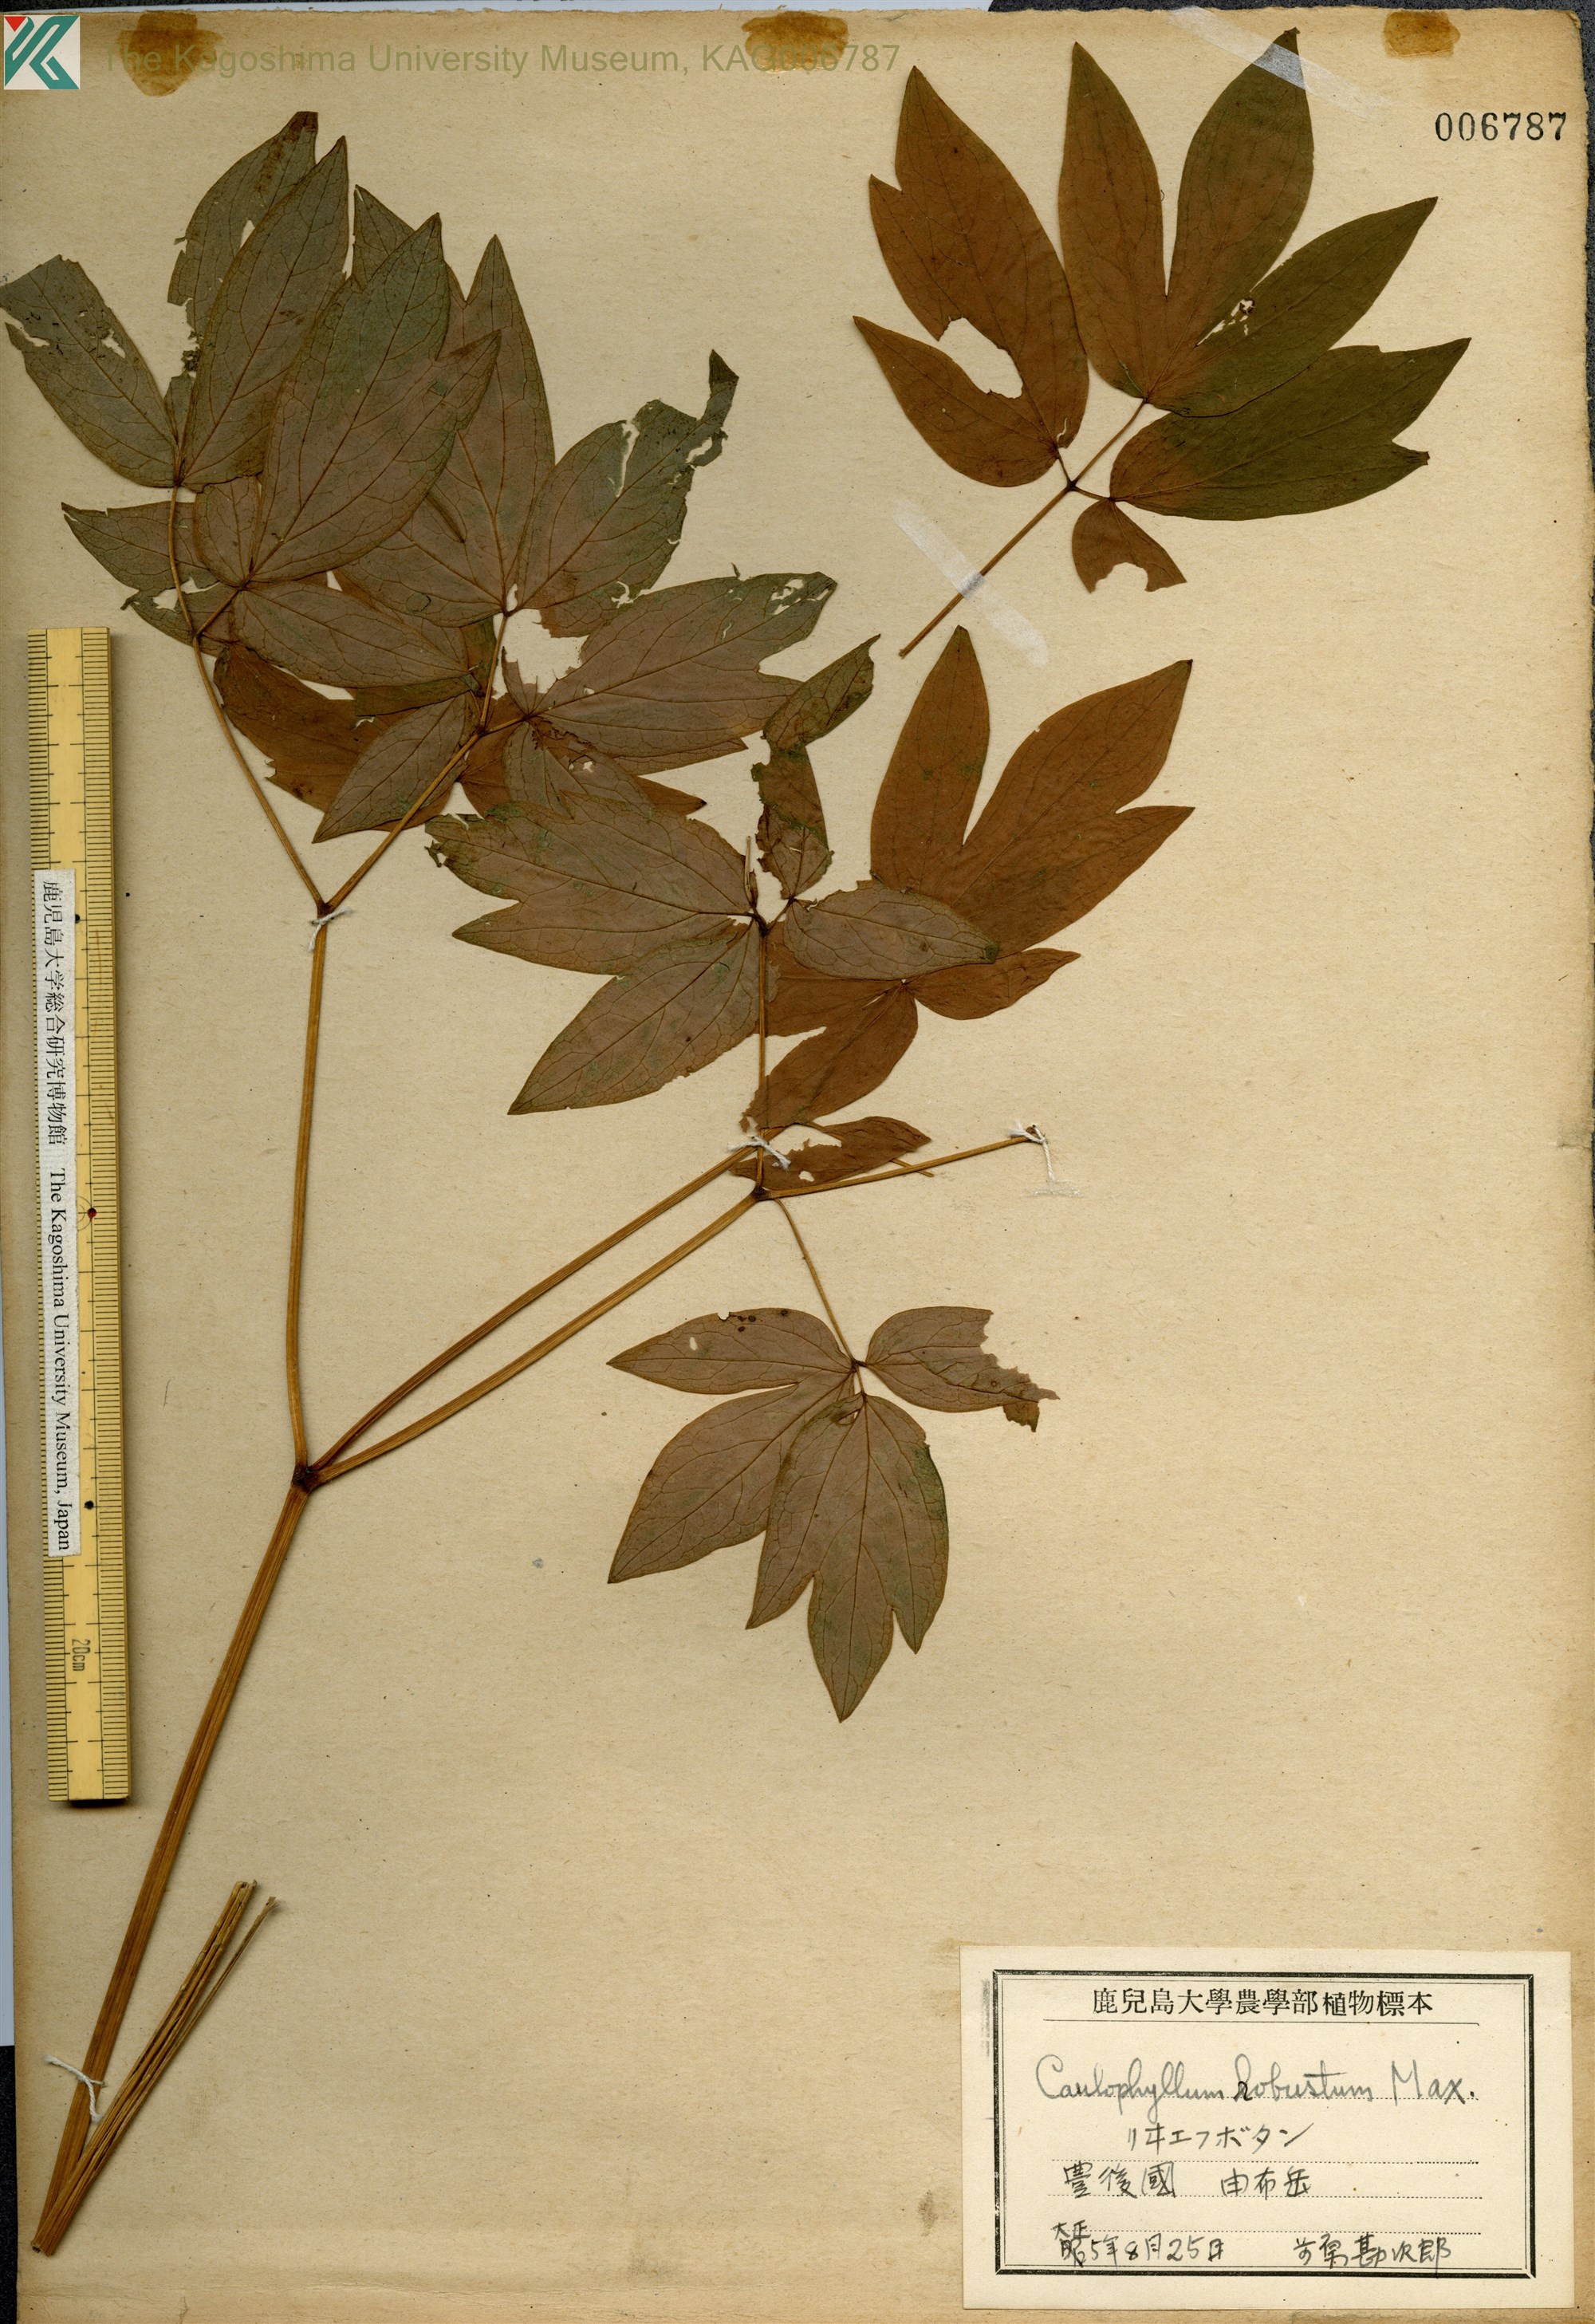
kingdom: Plantae
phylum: Tracheophyta
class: Magnoliopsida
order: Ranunculales
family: Berberidaceae
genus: Caulophyllum
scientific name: Caulophyllum robustum
